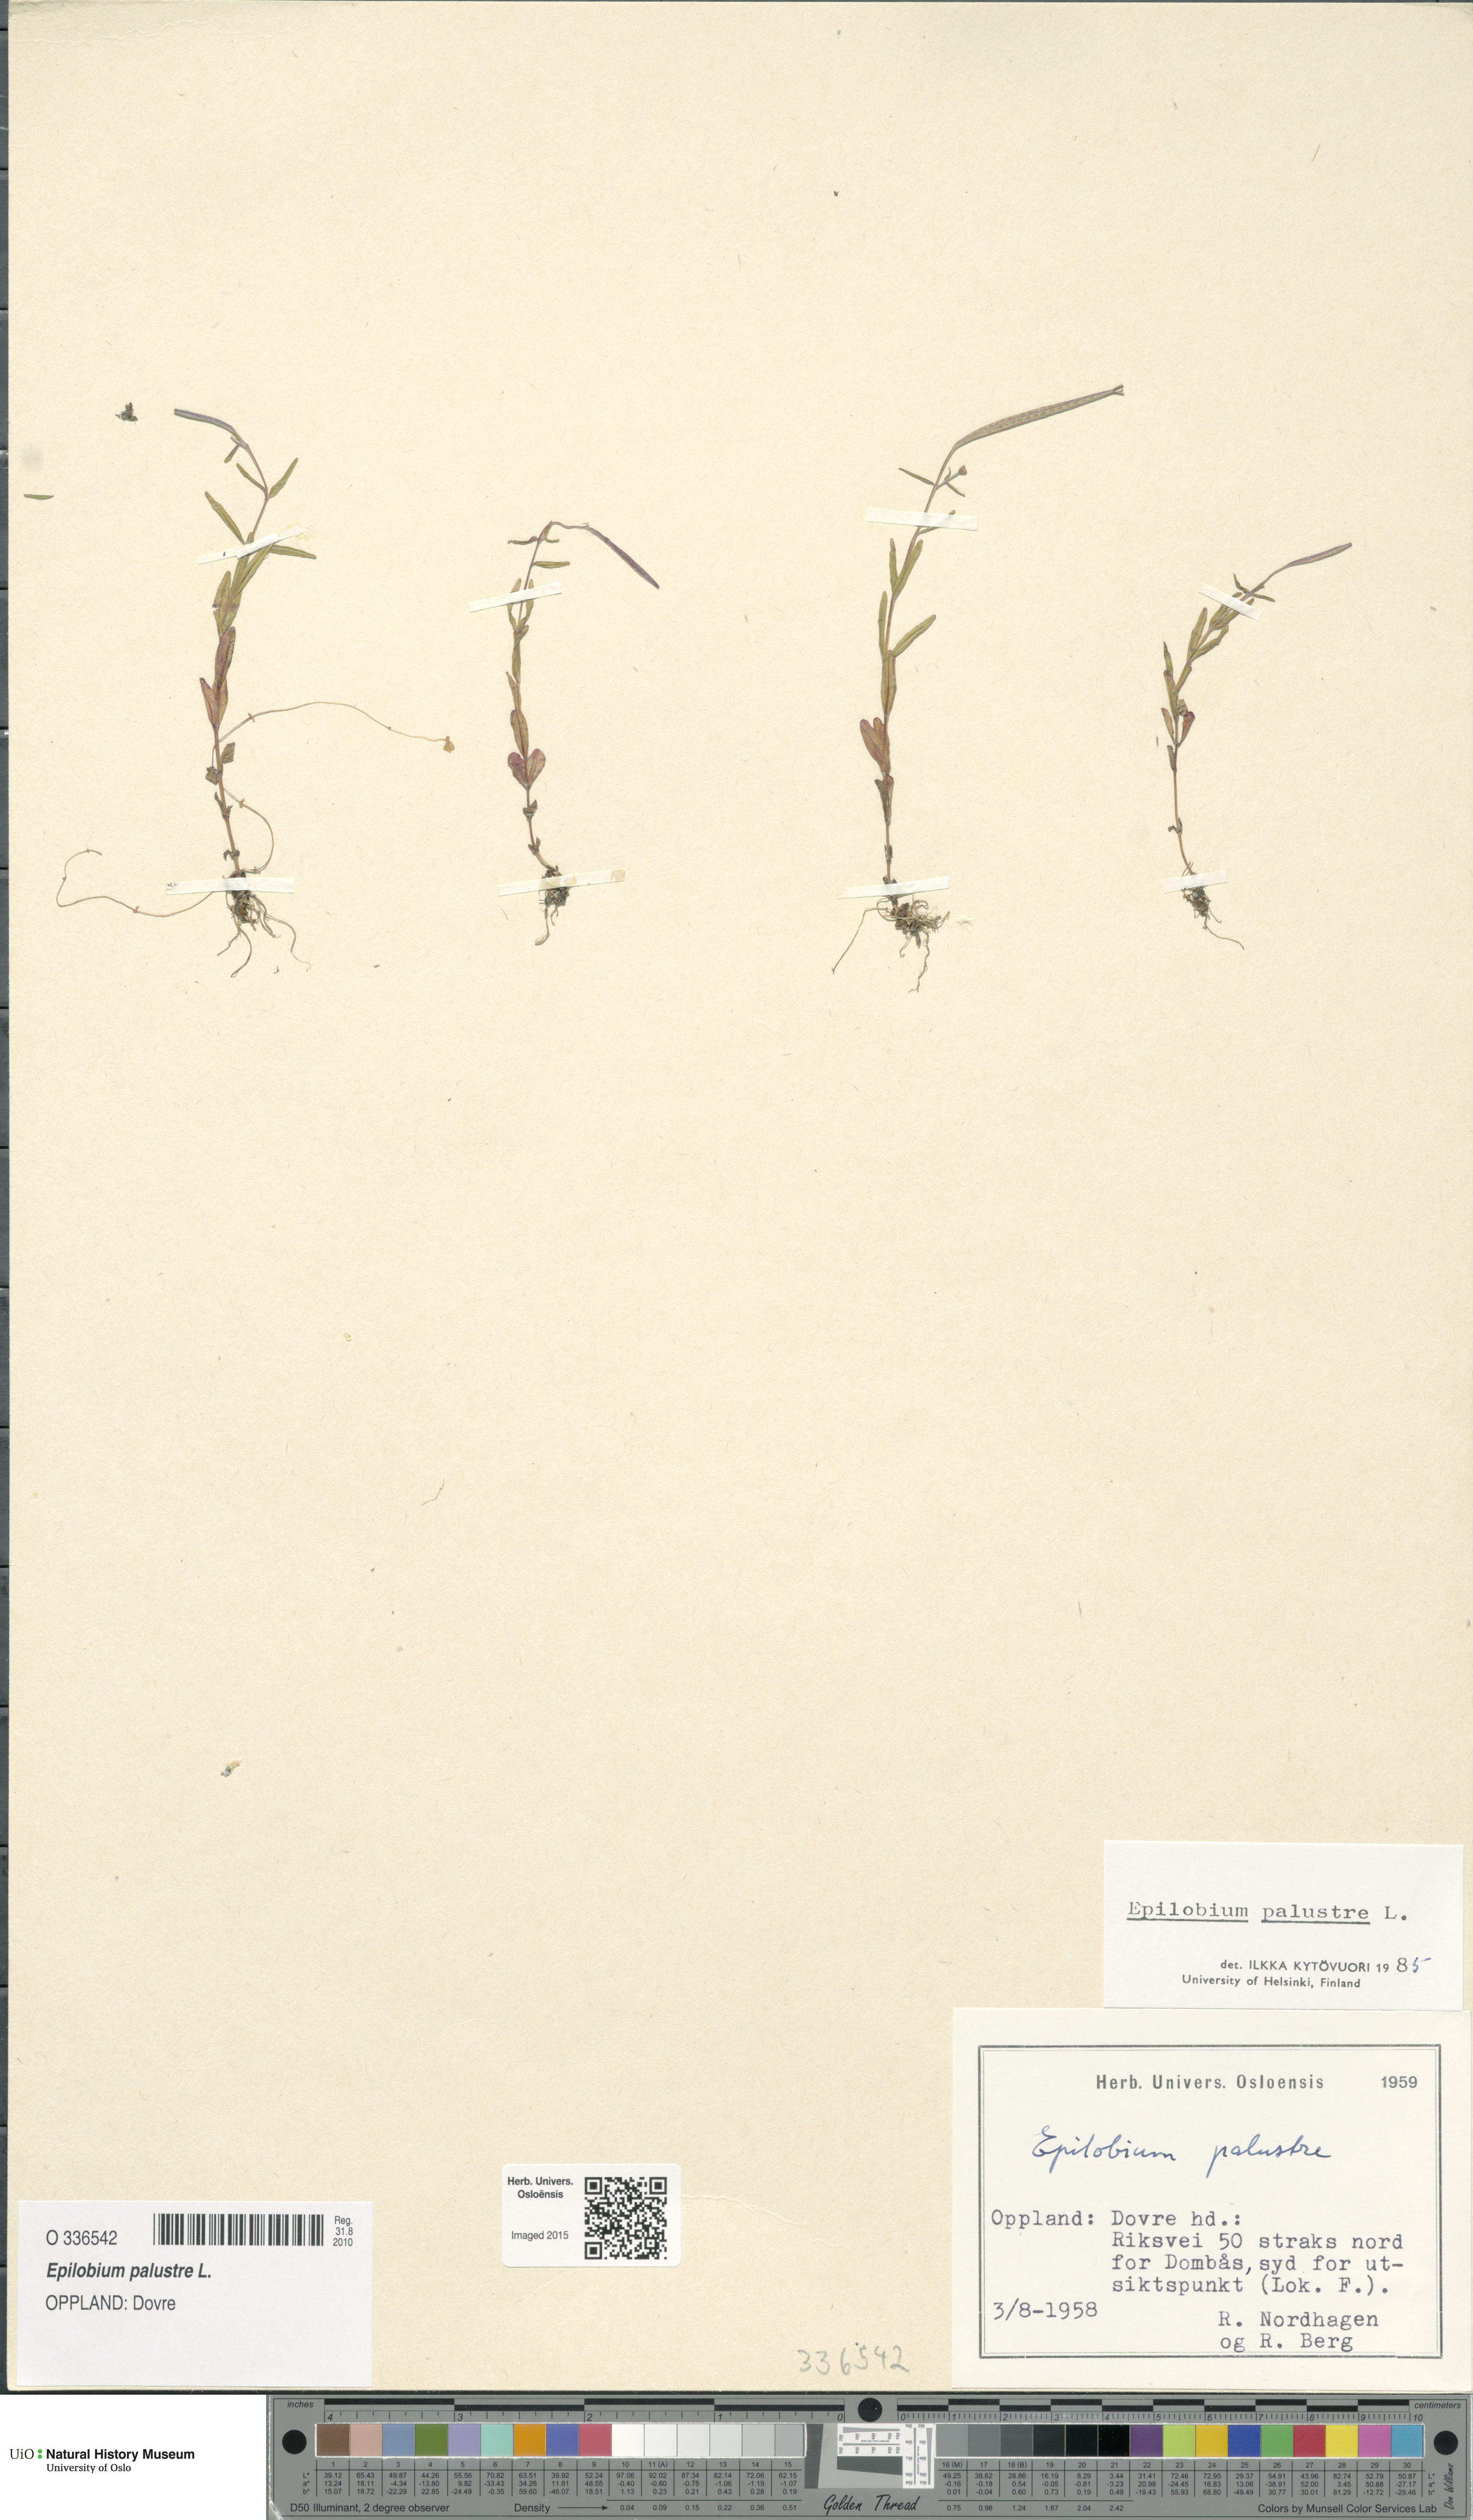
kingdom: Plantae
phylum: Tracheophyta
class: Magnoliopsida
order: Myrtales
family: Onagraceae
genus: Epilobium
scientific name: Epilobium palustre
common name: Marsh willowherb
